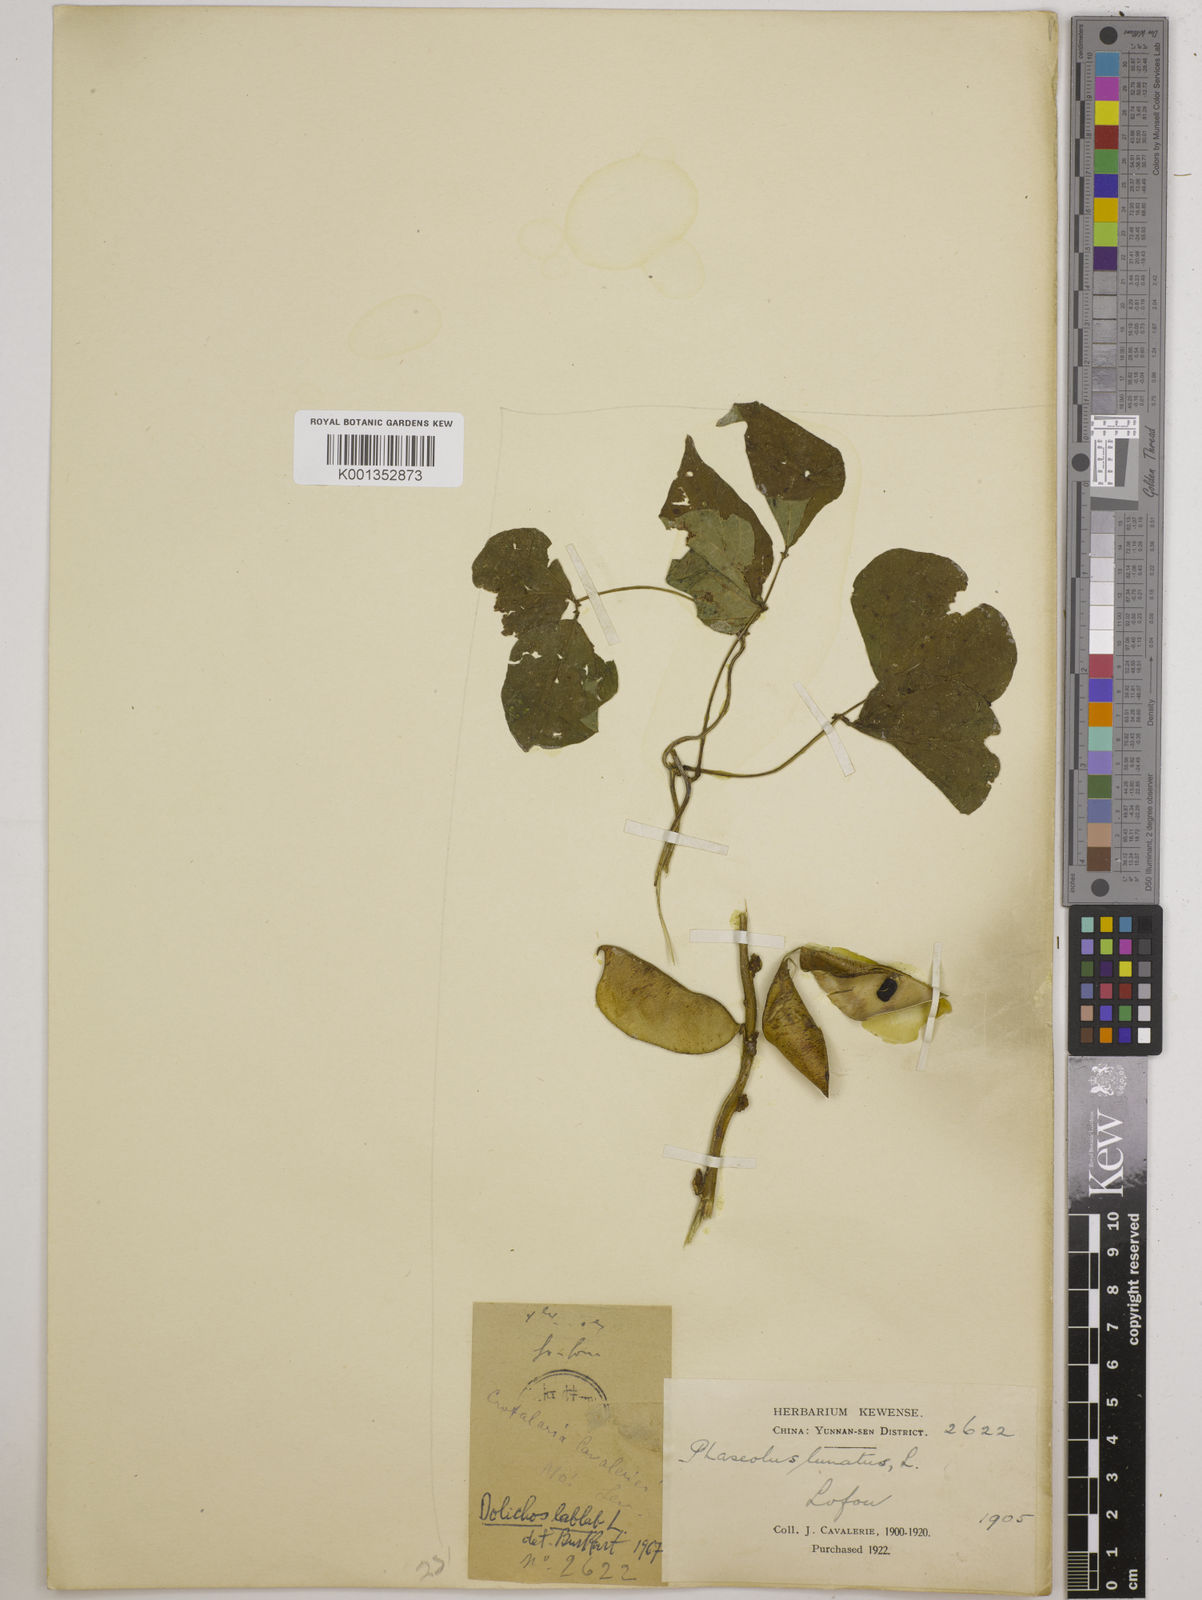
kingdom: Plantae
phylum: Tracheophyta
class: Magnoliopsida
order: Fabales
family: Fabaceae
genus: Lablab
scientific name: Lablab purpureus
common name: Lablab-bean
